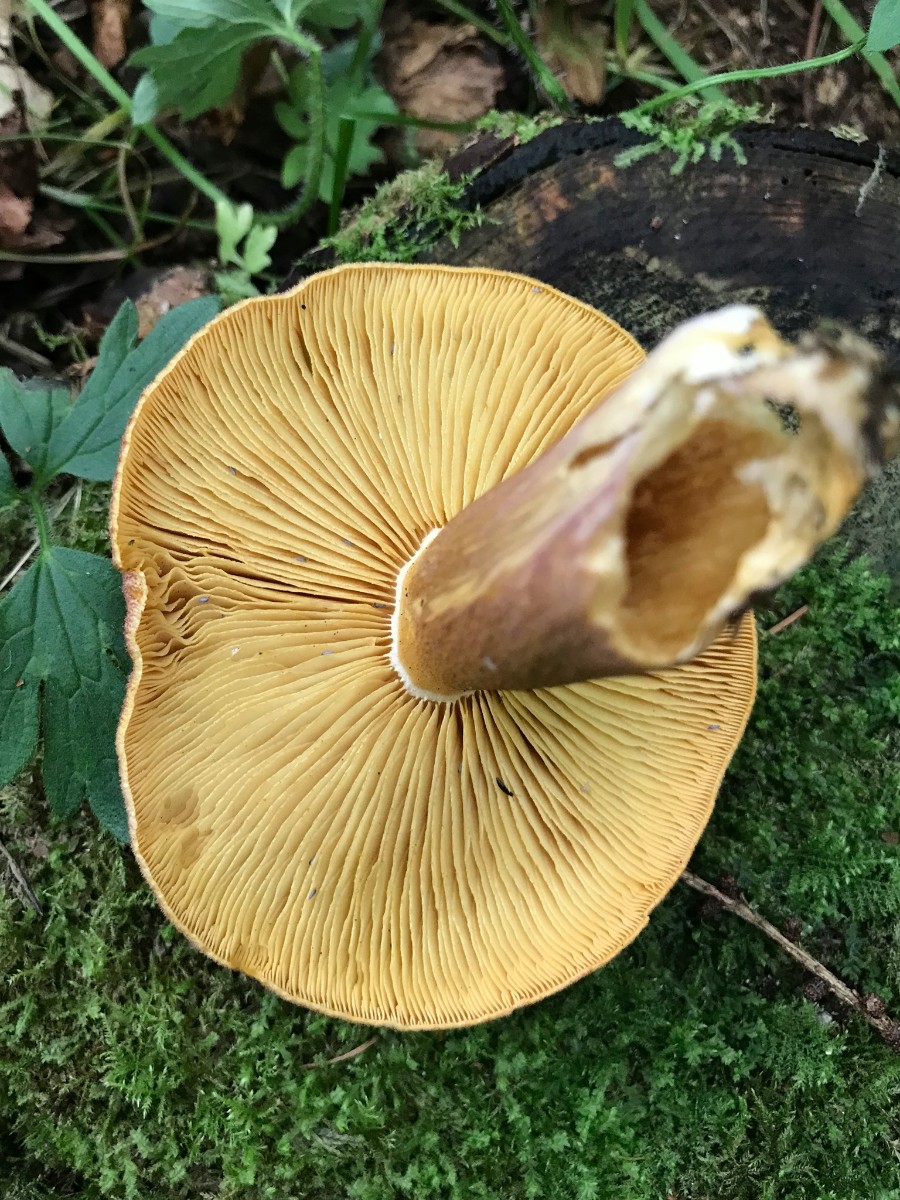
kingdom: Fungi
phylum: Basidiomycota
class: Agaricomycetes
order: Agaricales
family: Tricholomataceae
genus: Tricholomopsis
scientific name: Tricholomopsis rutilans
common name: purpur-væbnerhat
